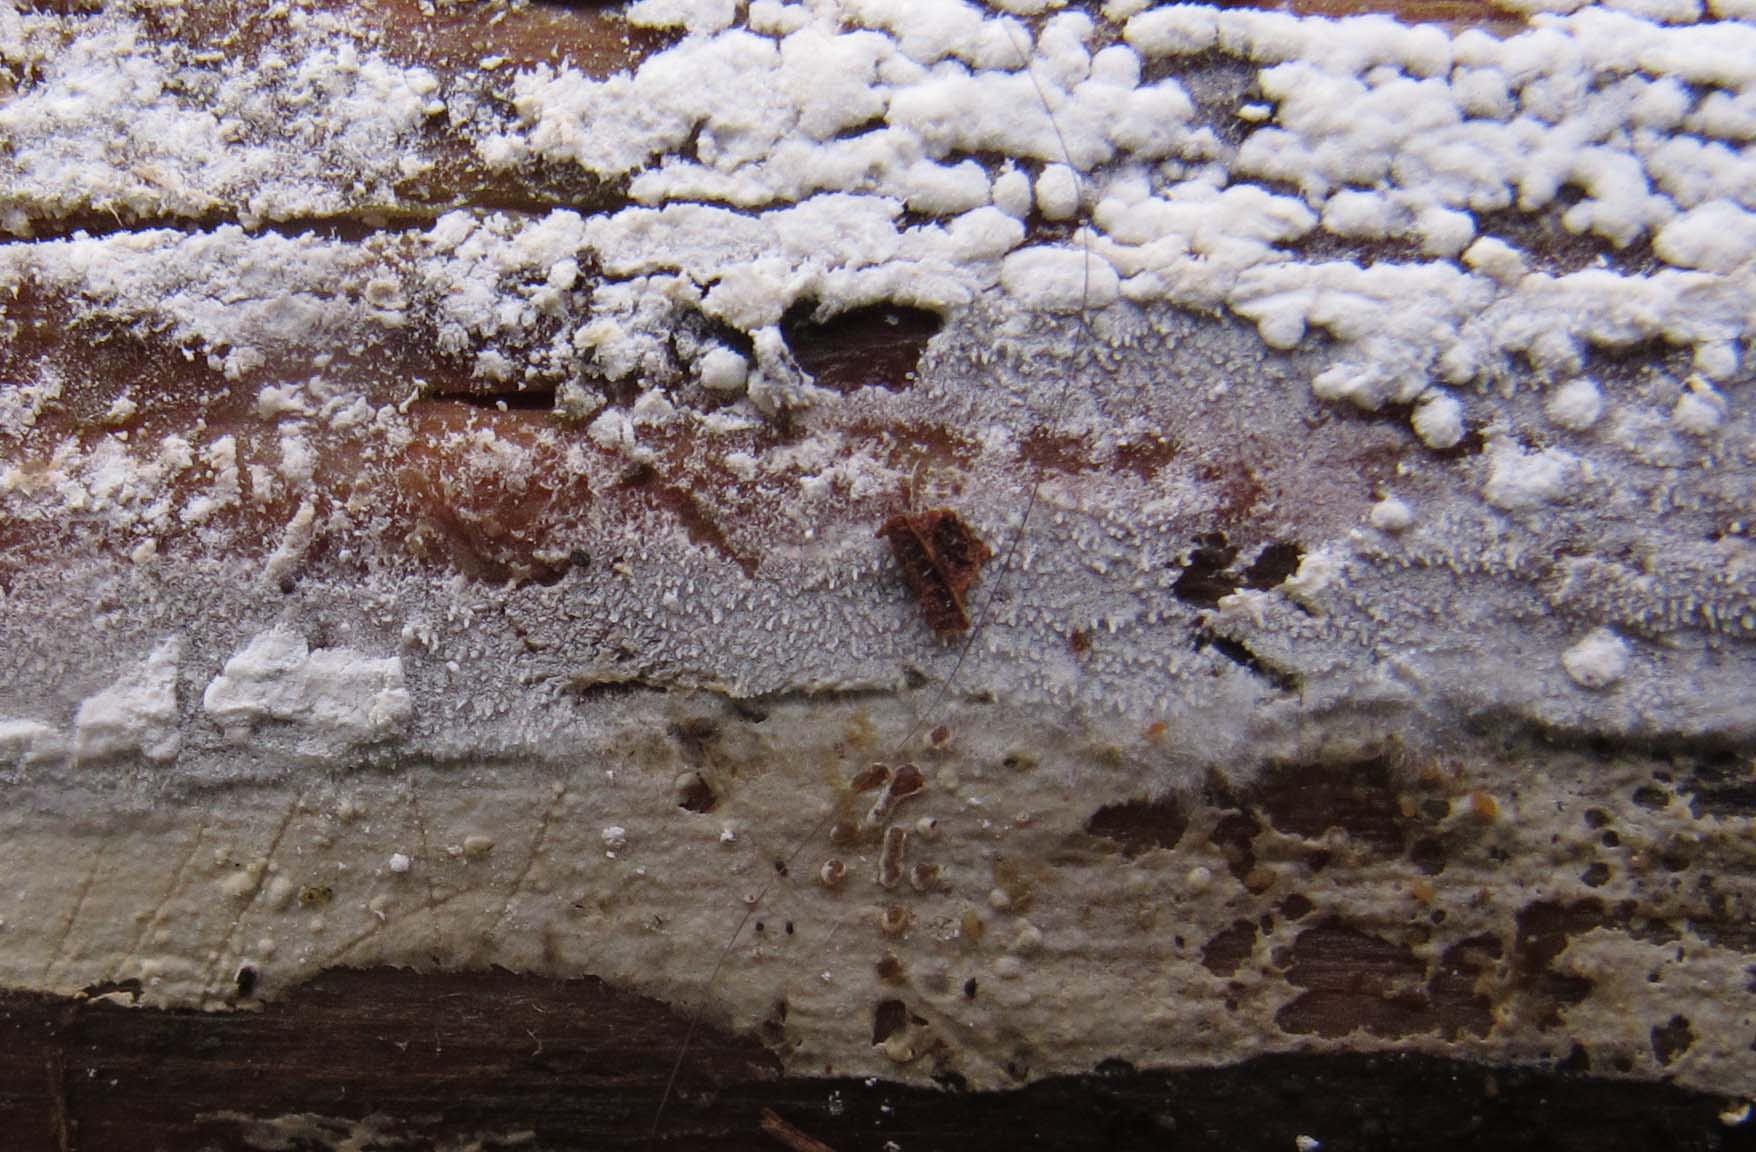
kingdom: Fungi
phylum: Basidiomycota
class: Agaricomycetes
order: Trechisporales
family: Sistotremataceae
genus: Trechispora
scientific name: Trechispora stevensonii
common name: støvende vathinde
